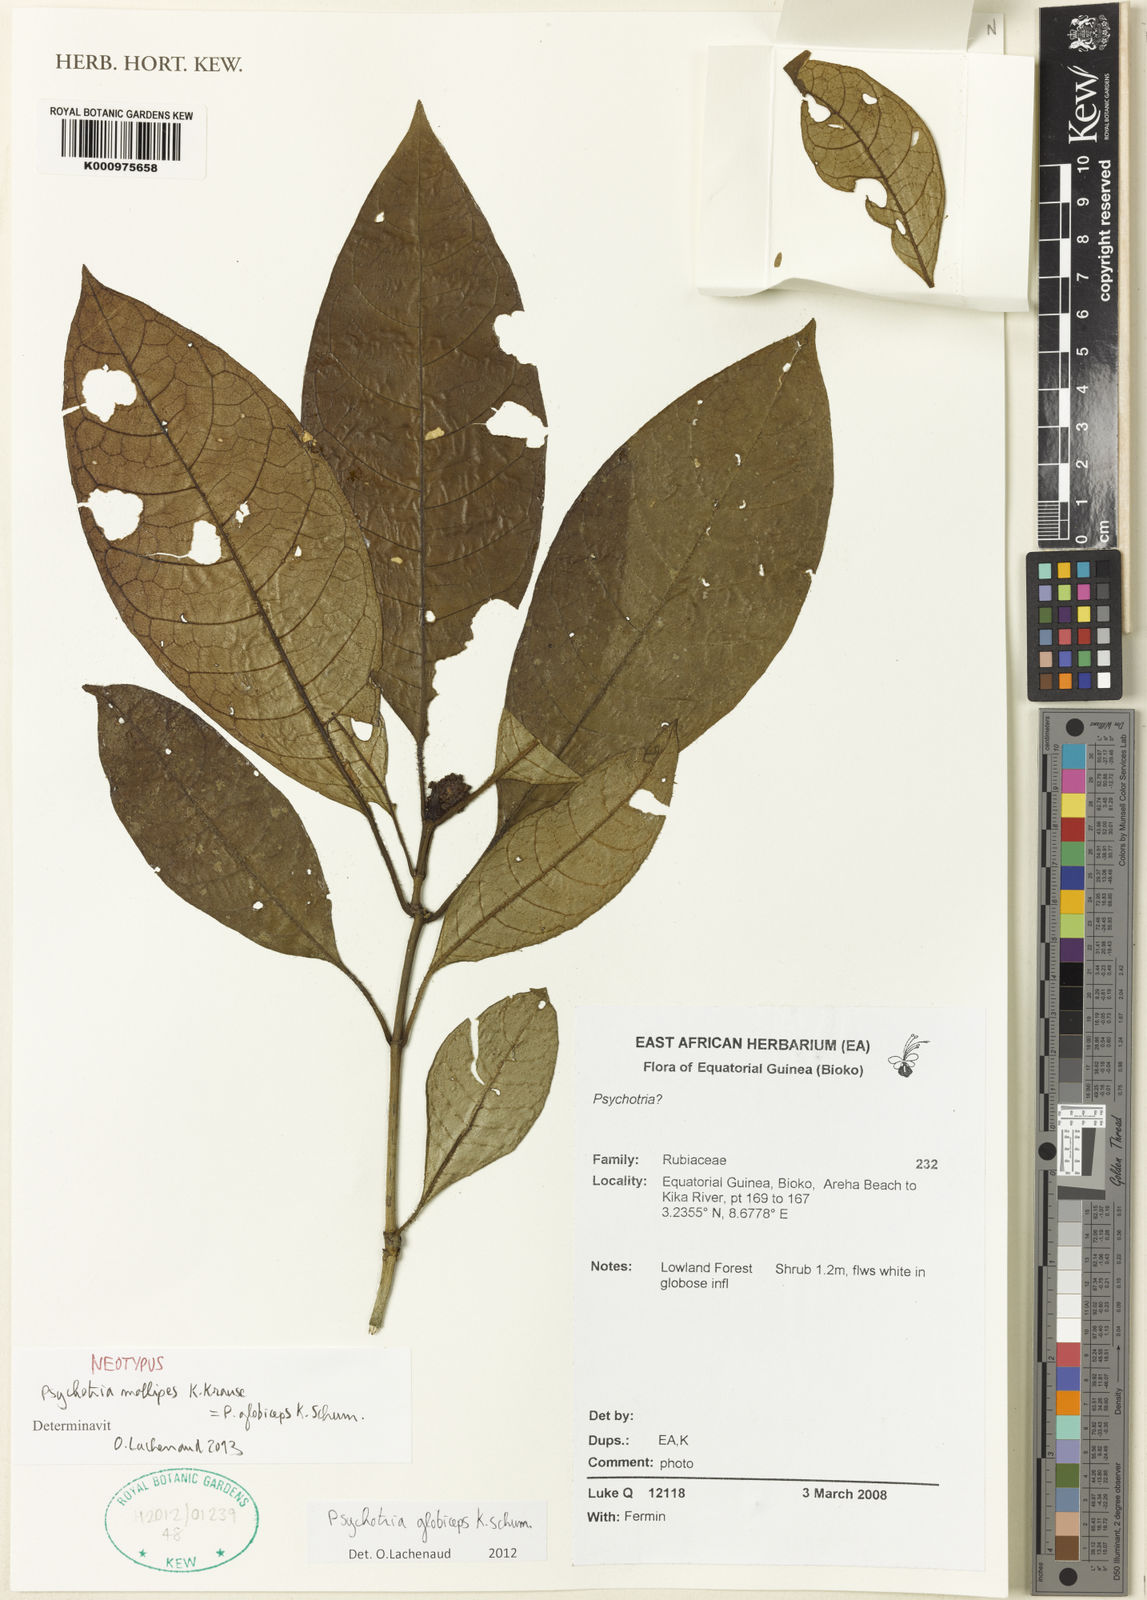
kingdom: Plantae
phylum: Tracheophyta
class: Magnoliopsida
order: Gentianales
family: Rubiaceae
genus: Psychotria
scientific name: Psychotria mollipes
